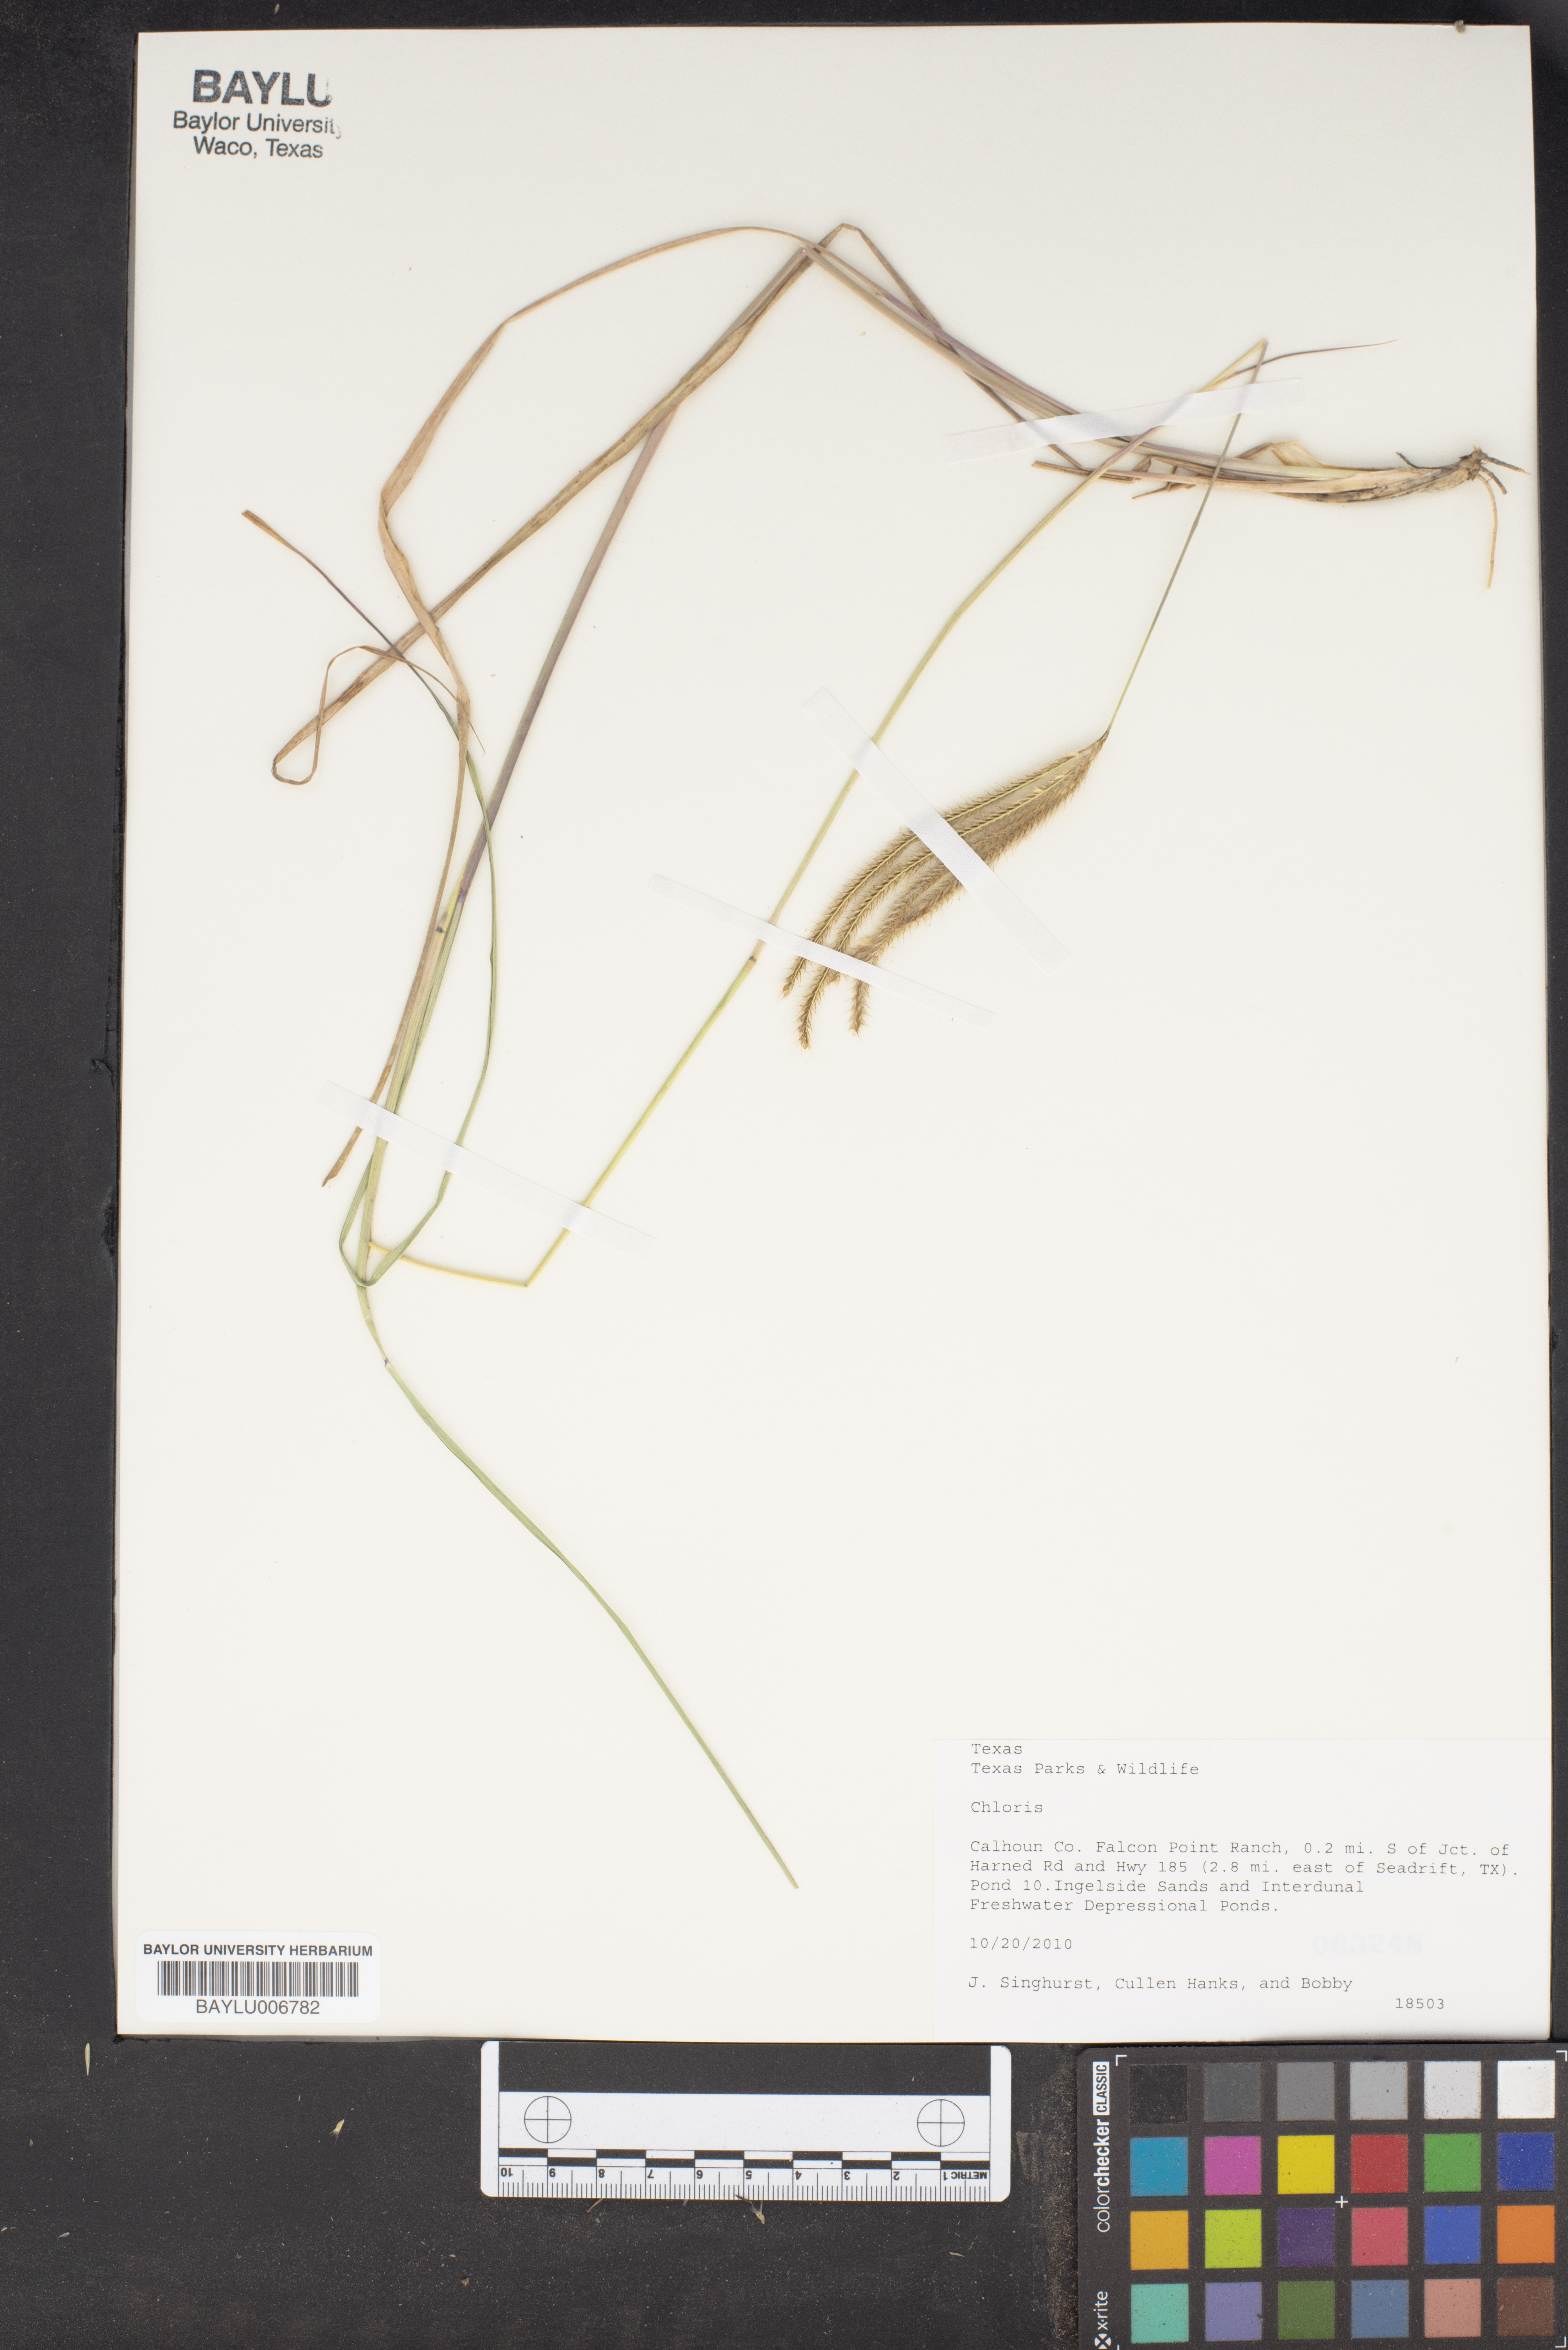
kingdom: Plantae
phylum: Tracheophyta
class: Liliopsida
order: Poales
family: Poaceae
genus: Chloris
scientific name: Chloris
